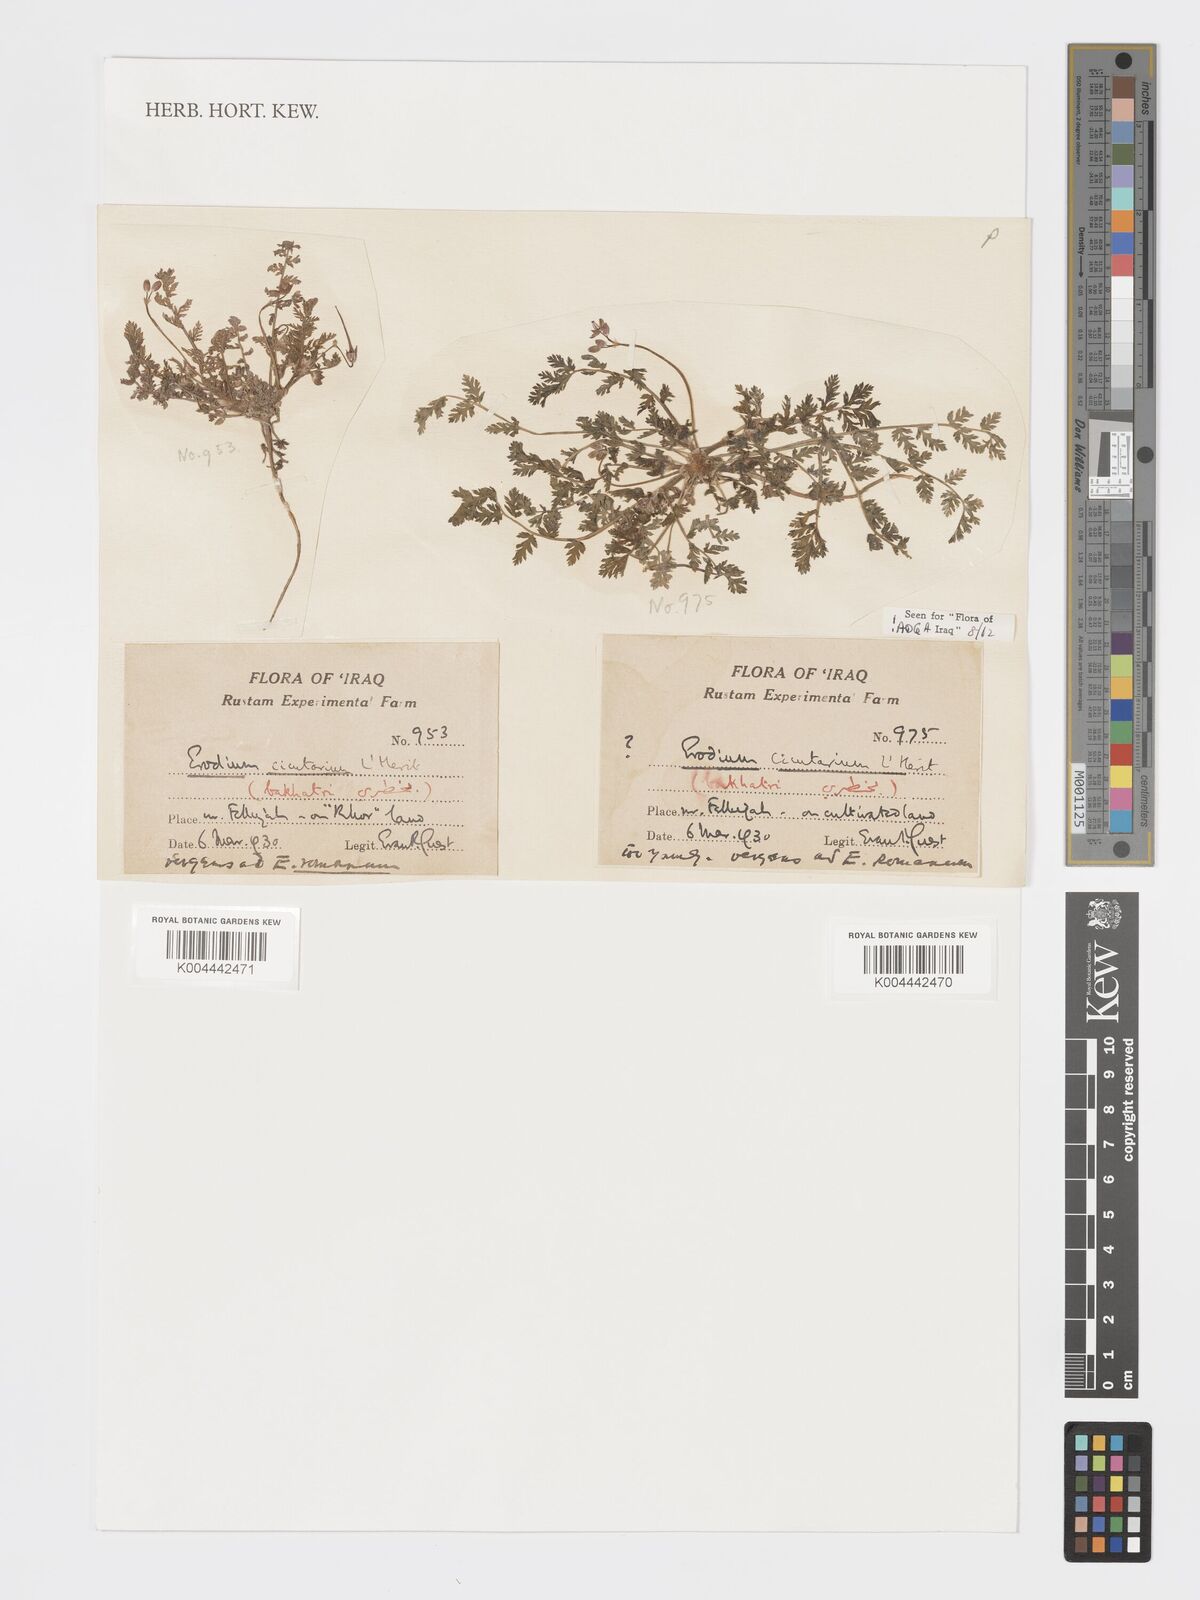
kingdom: Plantae
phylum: Tracheophyta
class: Magnoliopsida
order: Geraniales
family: Geraniaceae
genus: Erodium
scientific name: Erodium cicutarium
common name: Common stork's-bill
